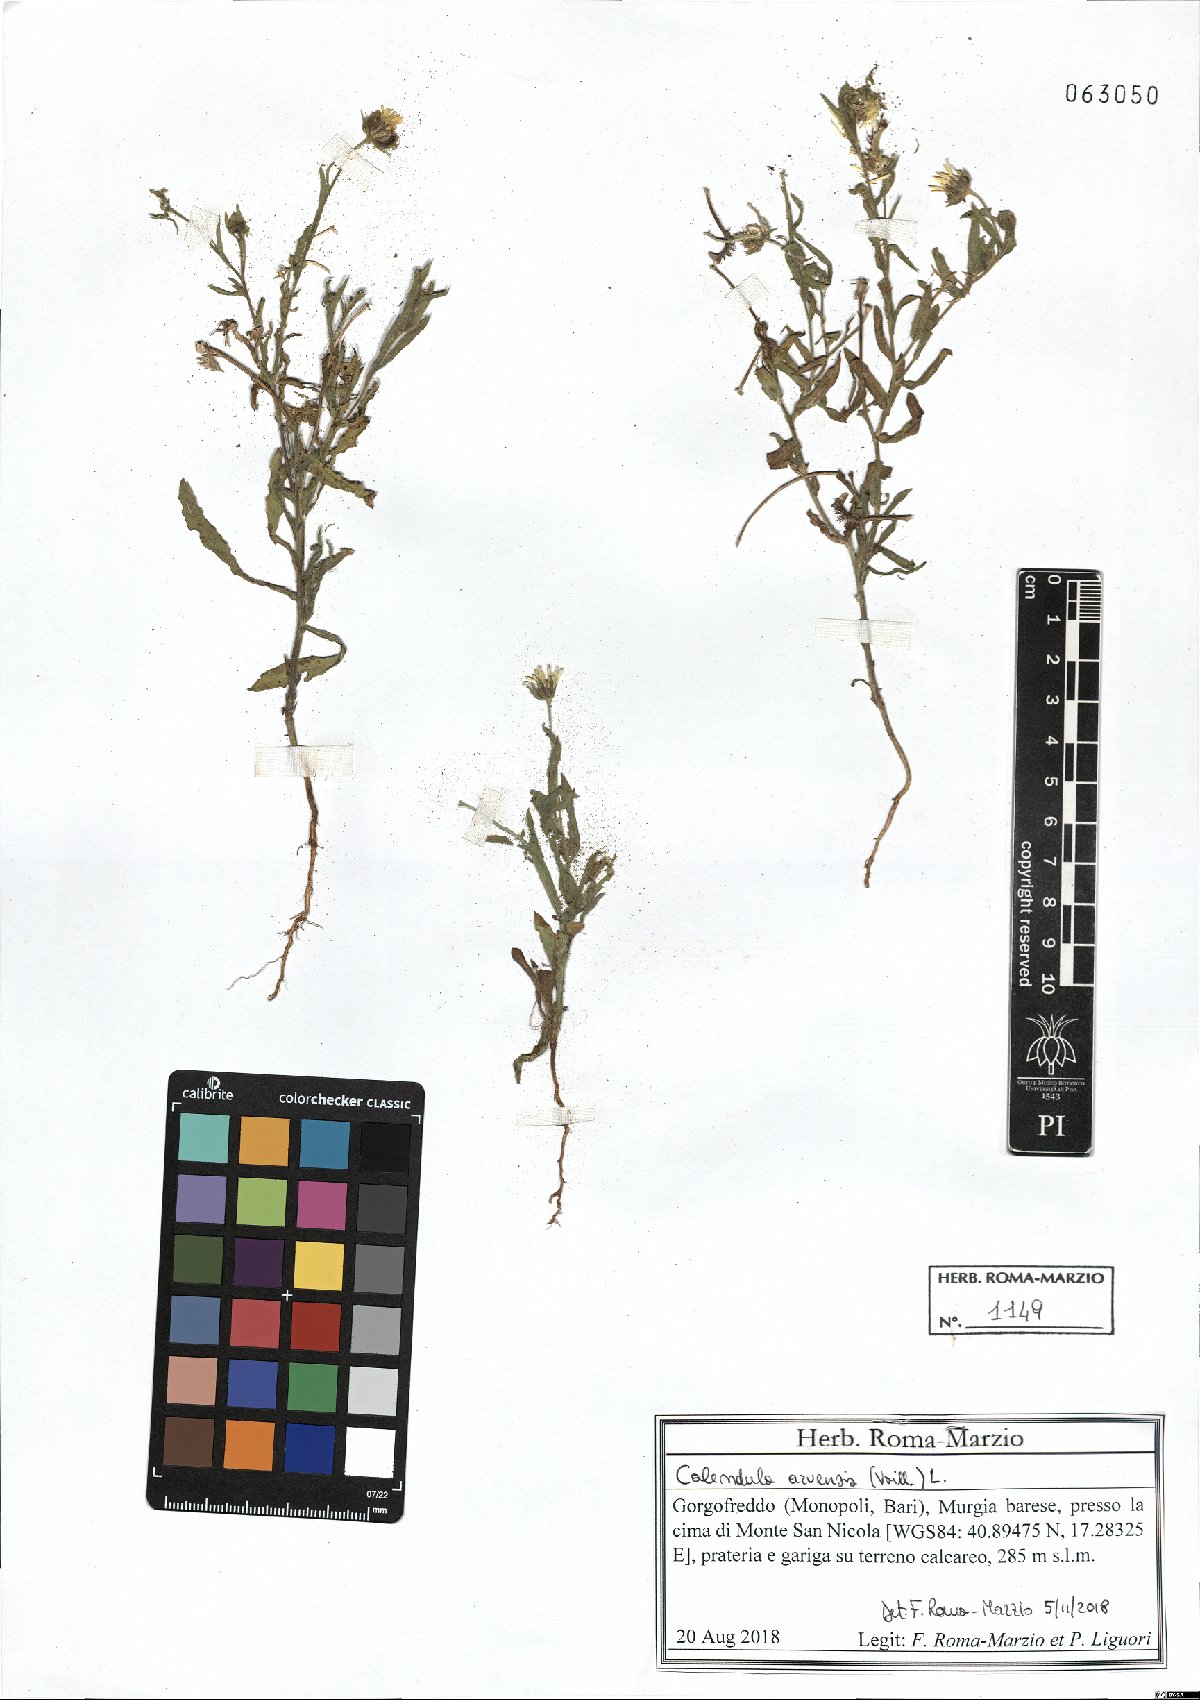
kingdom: Plantae
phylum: Tracheophyta
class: Magnoliopsida
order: Asterales
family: Asteraceae
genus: Calendula
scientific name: Calendula arvensis
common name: Field marigold
